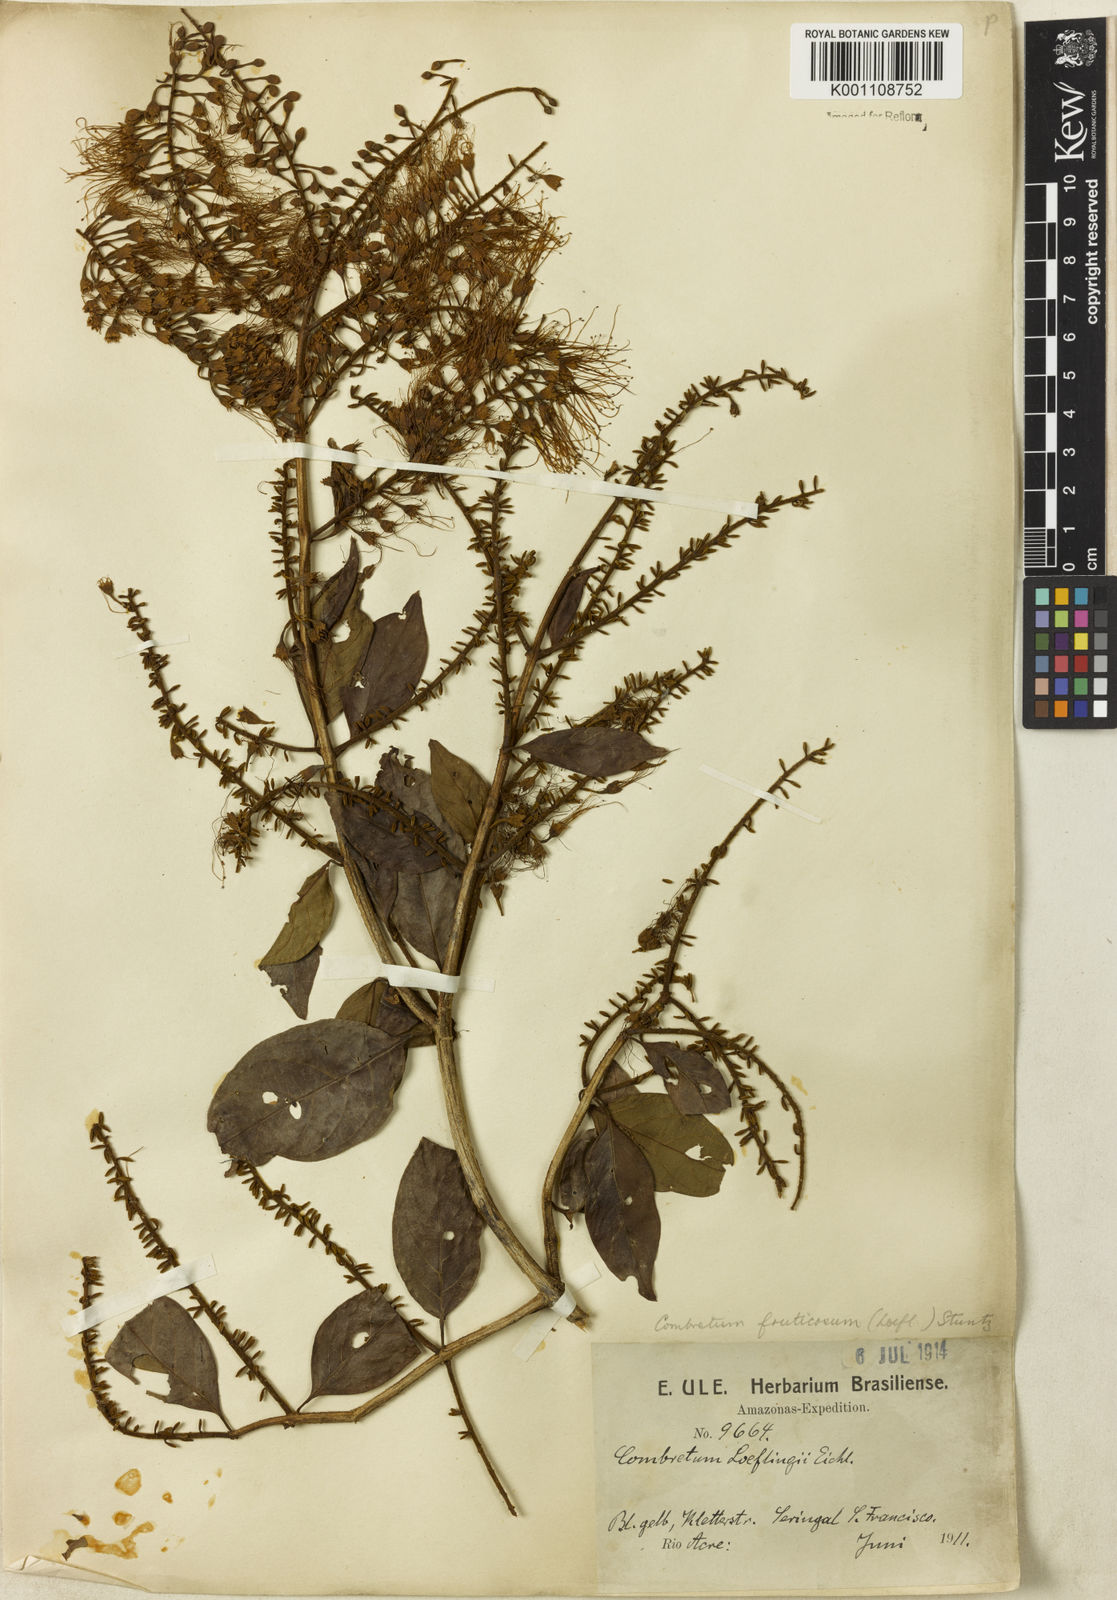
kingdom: Plantae
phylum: Tracheophyta
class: Magnoliopsida
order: Myrtales
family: Combretaceae
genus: Combretum
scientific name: Combretum fruticosum
